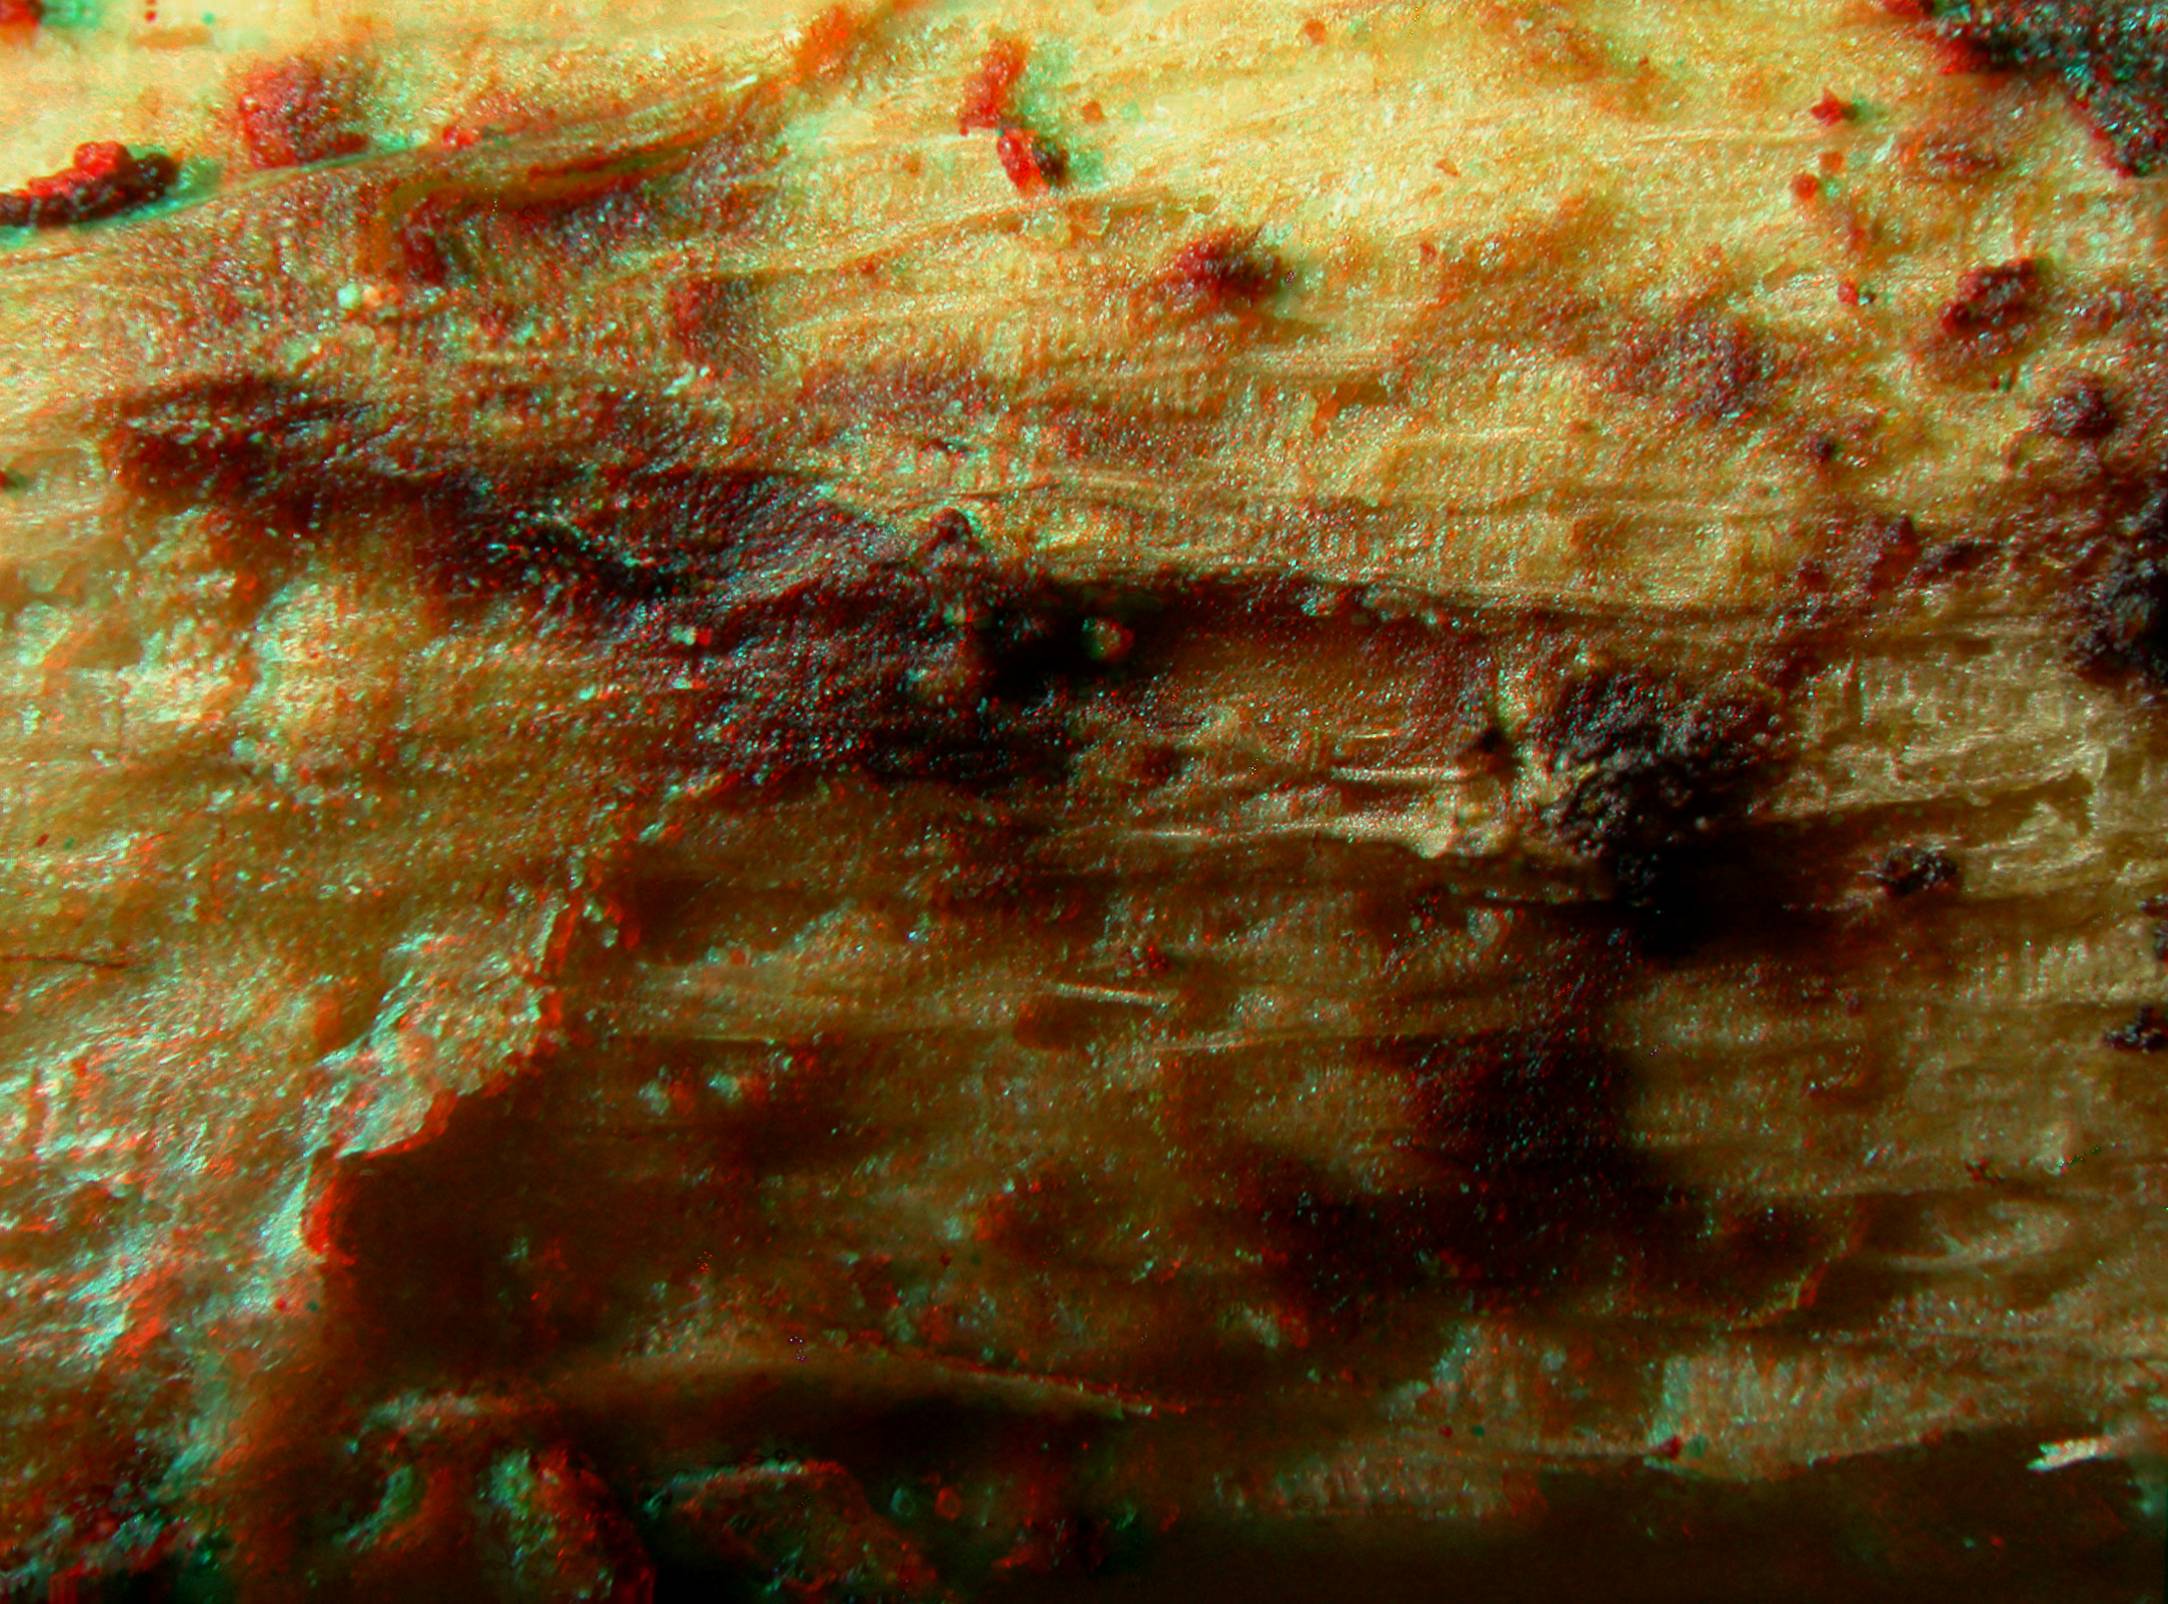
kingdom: Fungi
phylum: Ascomycota
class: Dothideomycetes
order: Pleosporales
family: Thyridariaceae
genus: Thyridaria
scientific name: Thyridaria lopadostoma
